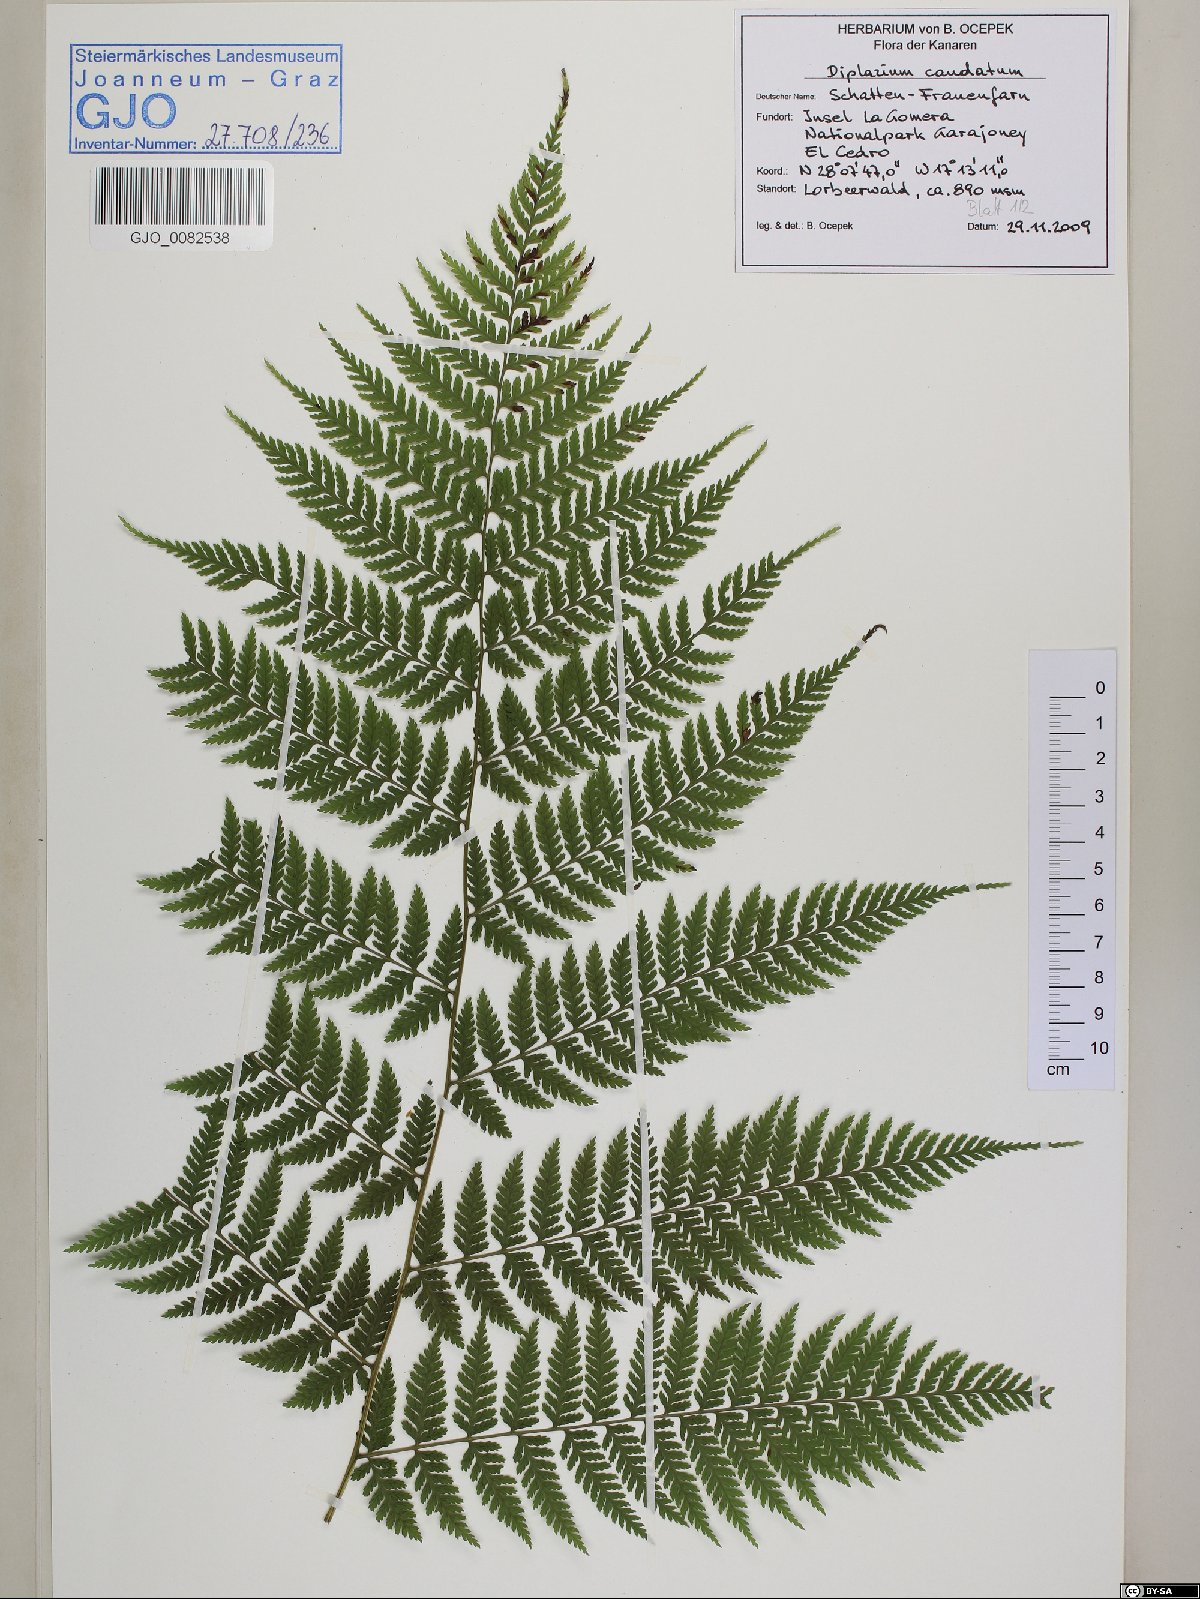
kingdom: Plantae
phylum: Tracheophyta
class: Polypodiopsida
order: Polypodiales
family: Athyriaceae
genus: Diplazium
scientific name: Diplazium caudatum
